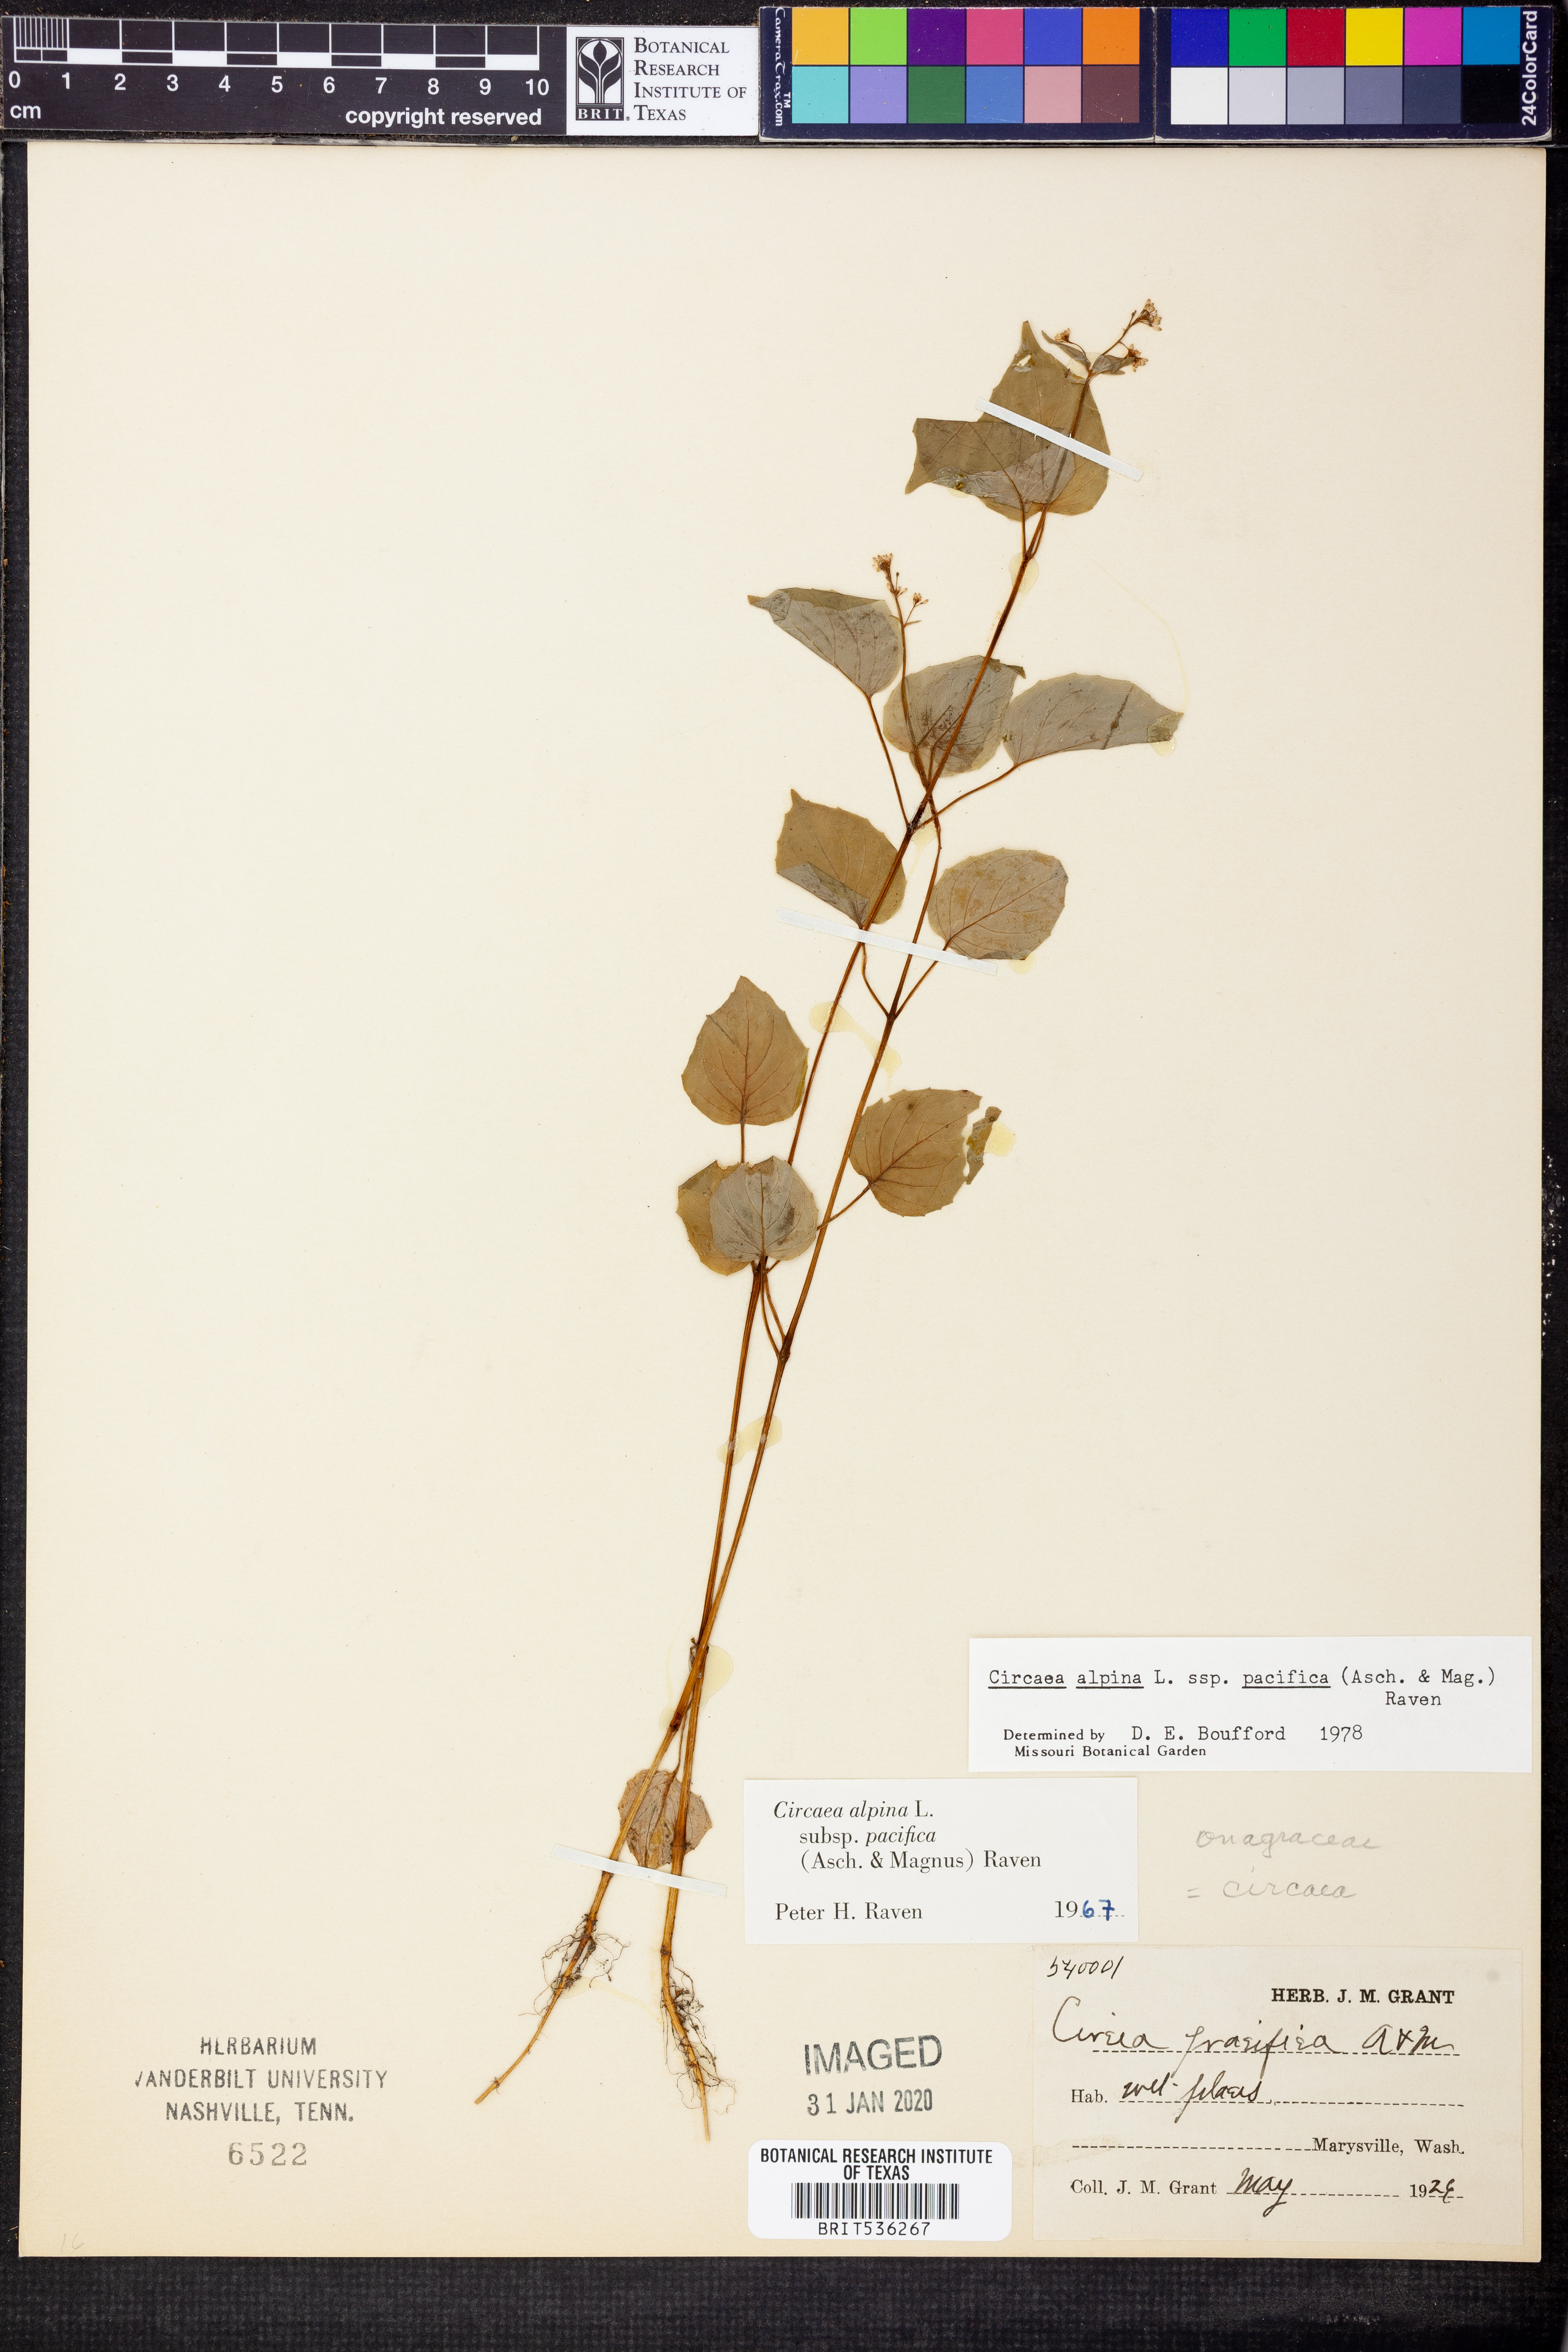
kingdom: Plantae
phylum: Tracheophyta
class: Magnoliopsida
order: Myrtales
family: Onagraceae
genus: Circaea
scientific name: Circaea alpina
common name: Alpine enchanter's-nightshade
